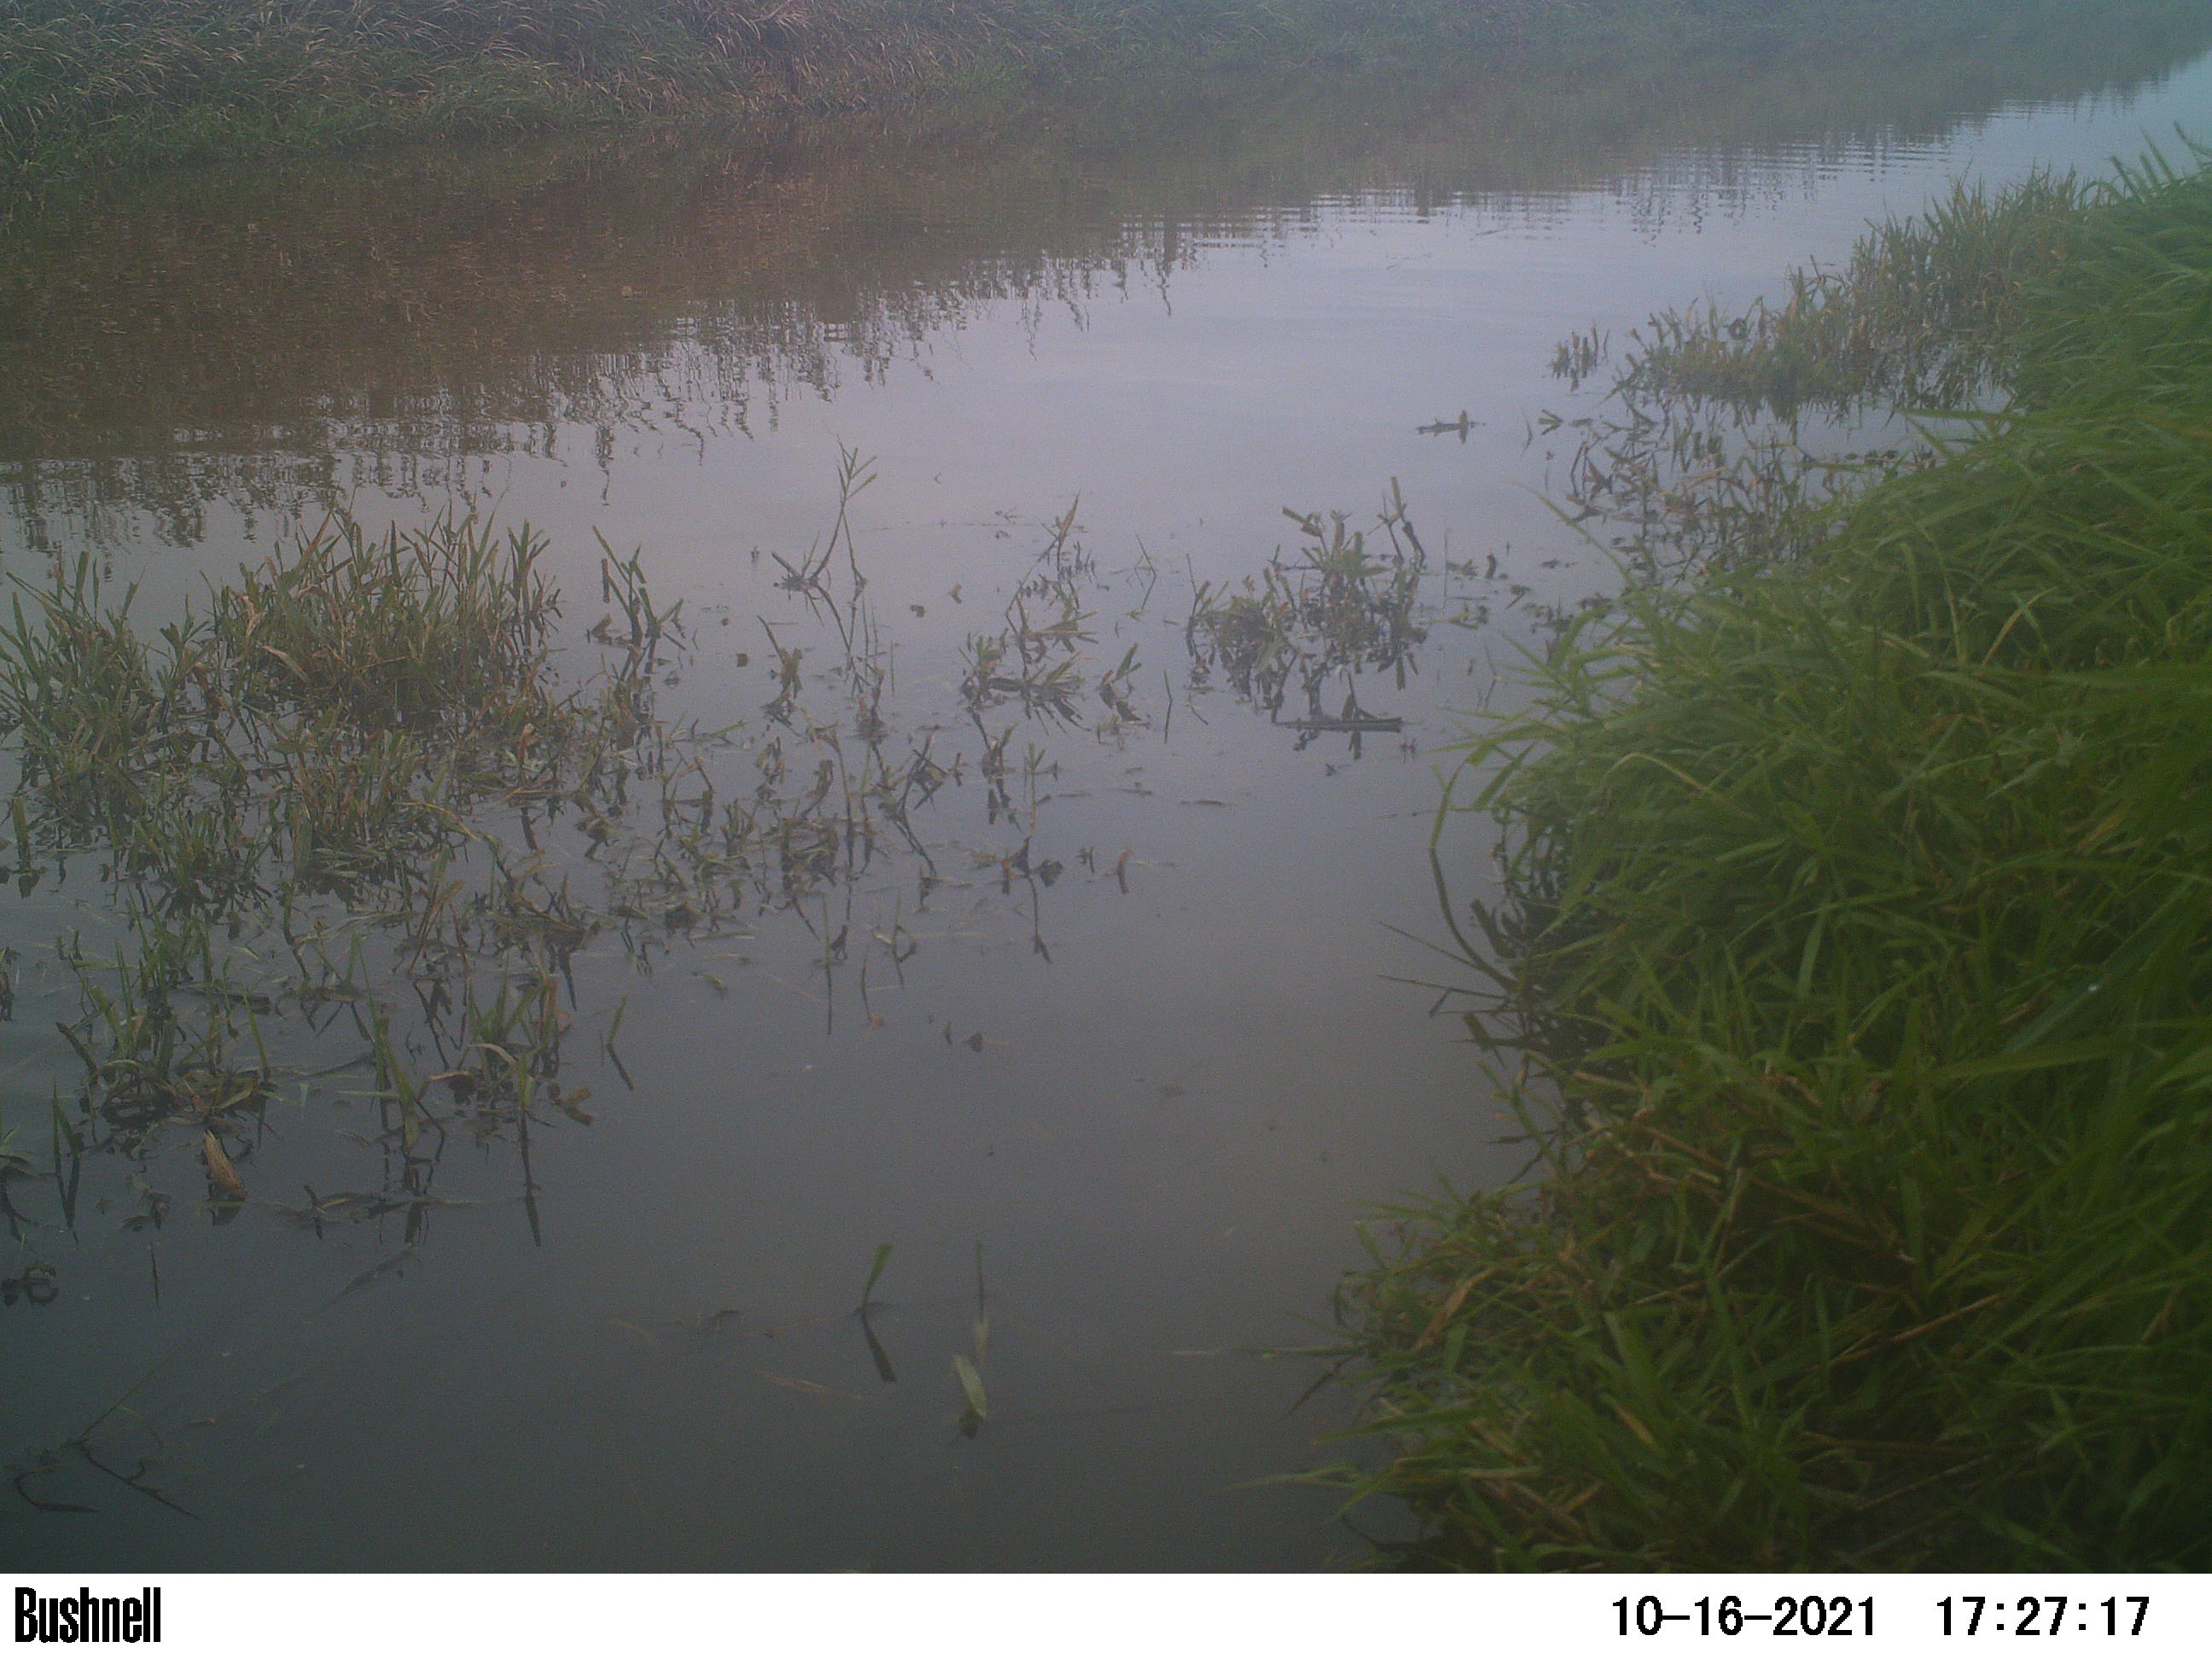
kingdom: Animalia
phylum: Chordata
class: Aves
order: Gruiformes
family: Rallidae
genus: Fulica
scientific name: Fulica atra
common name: Eurasian coot
